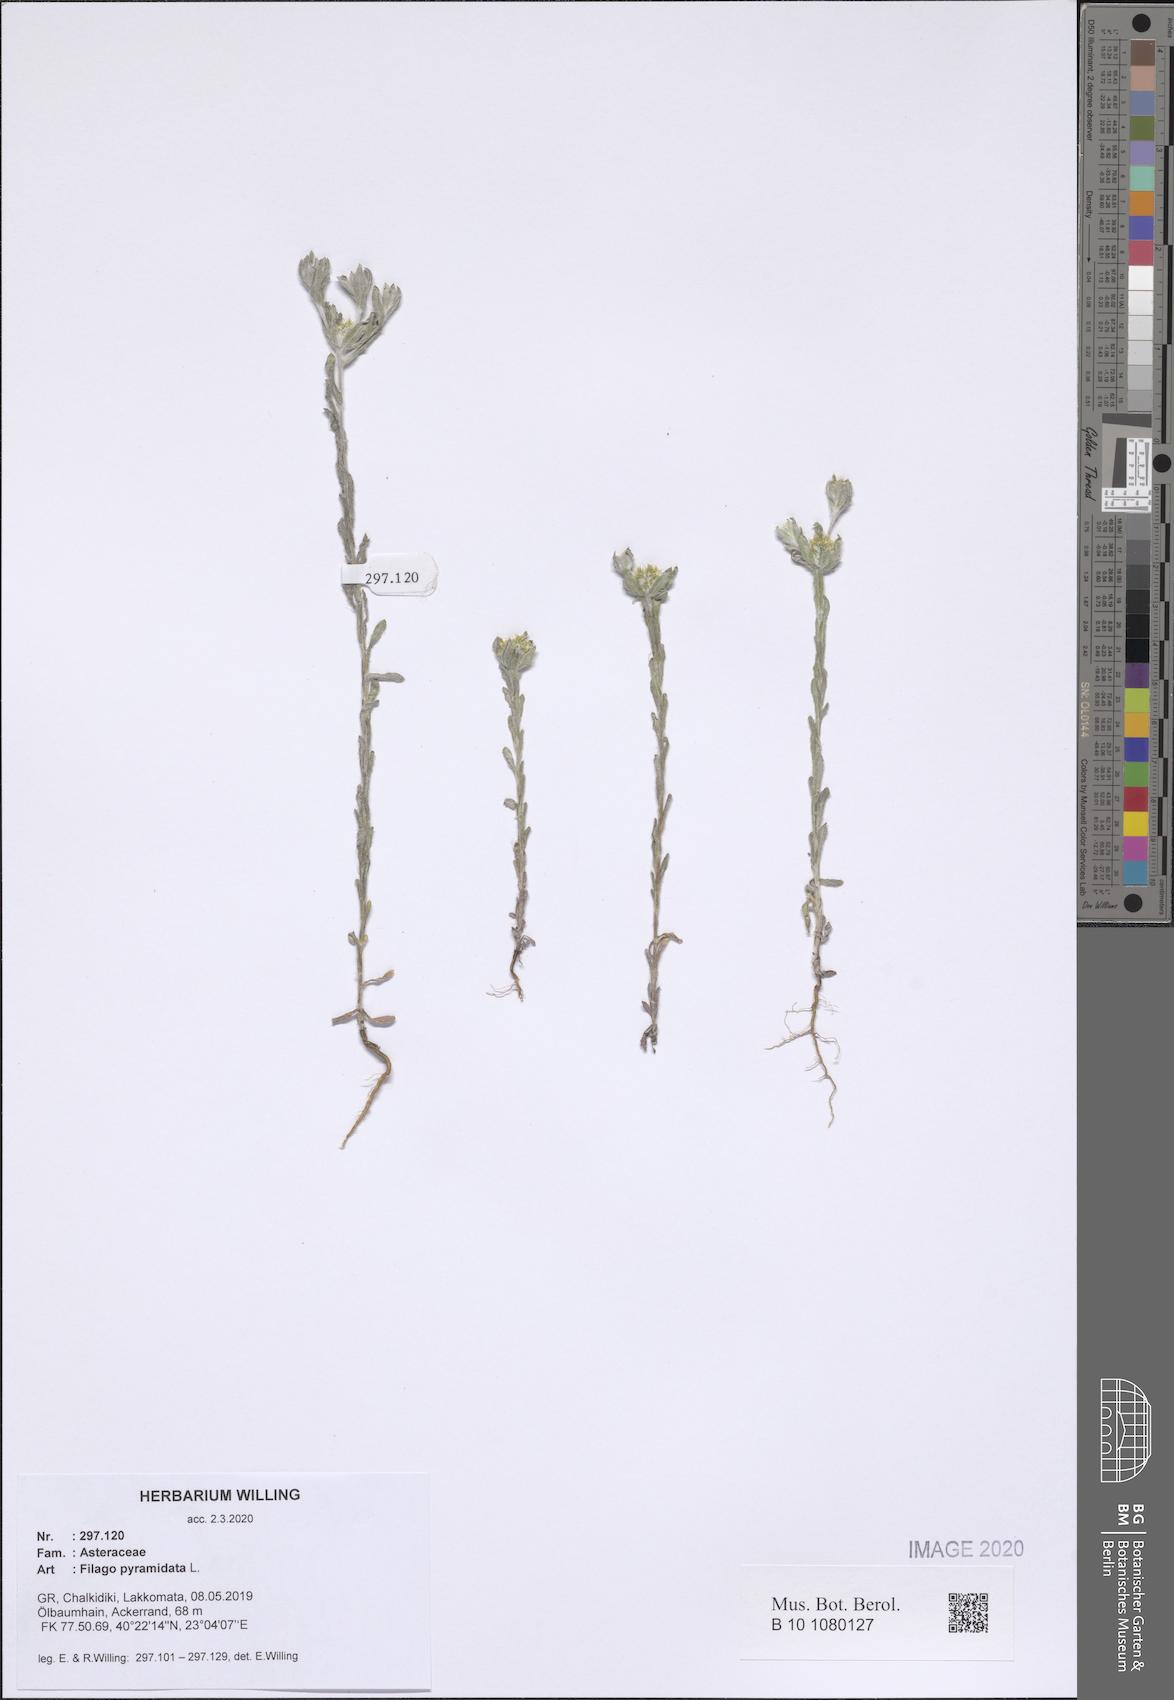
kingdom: Plantae
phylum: Tracheophyta
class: Magnoliopsida
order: Asterales
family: Asteraceae
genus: Filago
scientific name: Filago pyramidata
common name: Broad-leaved cudweed
